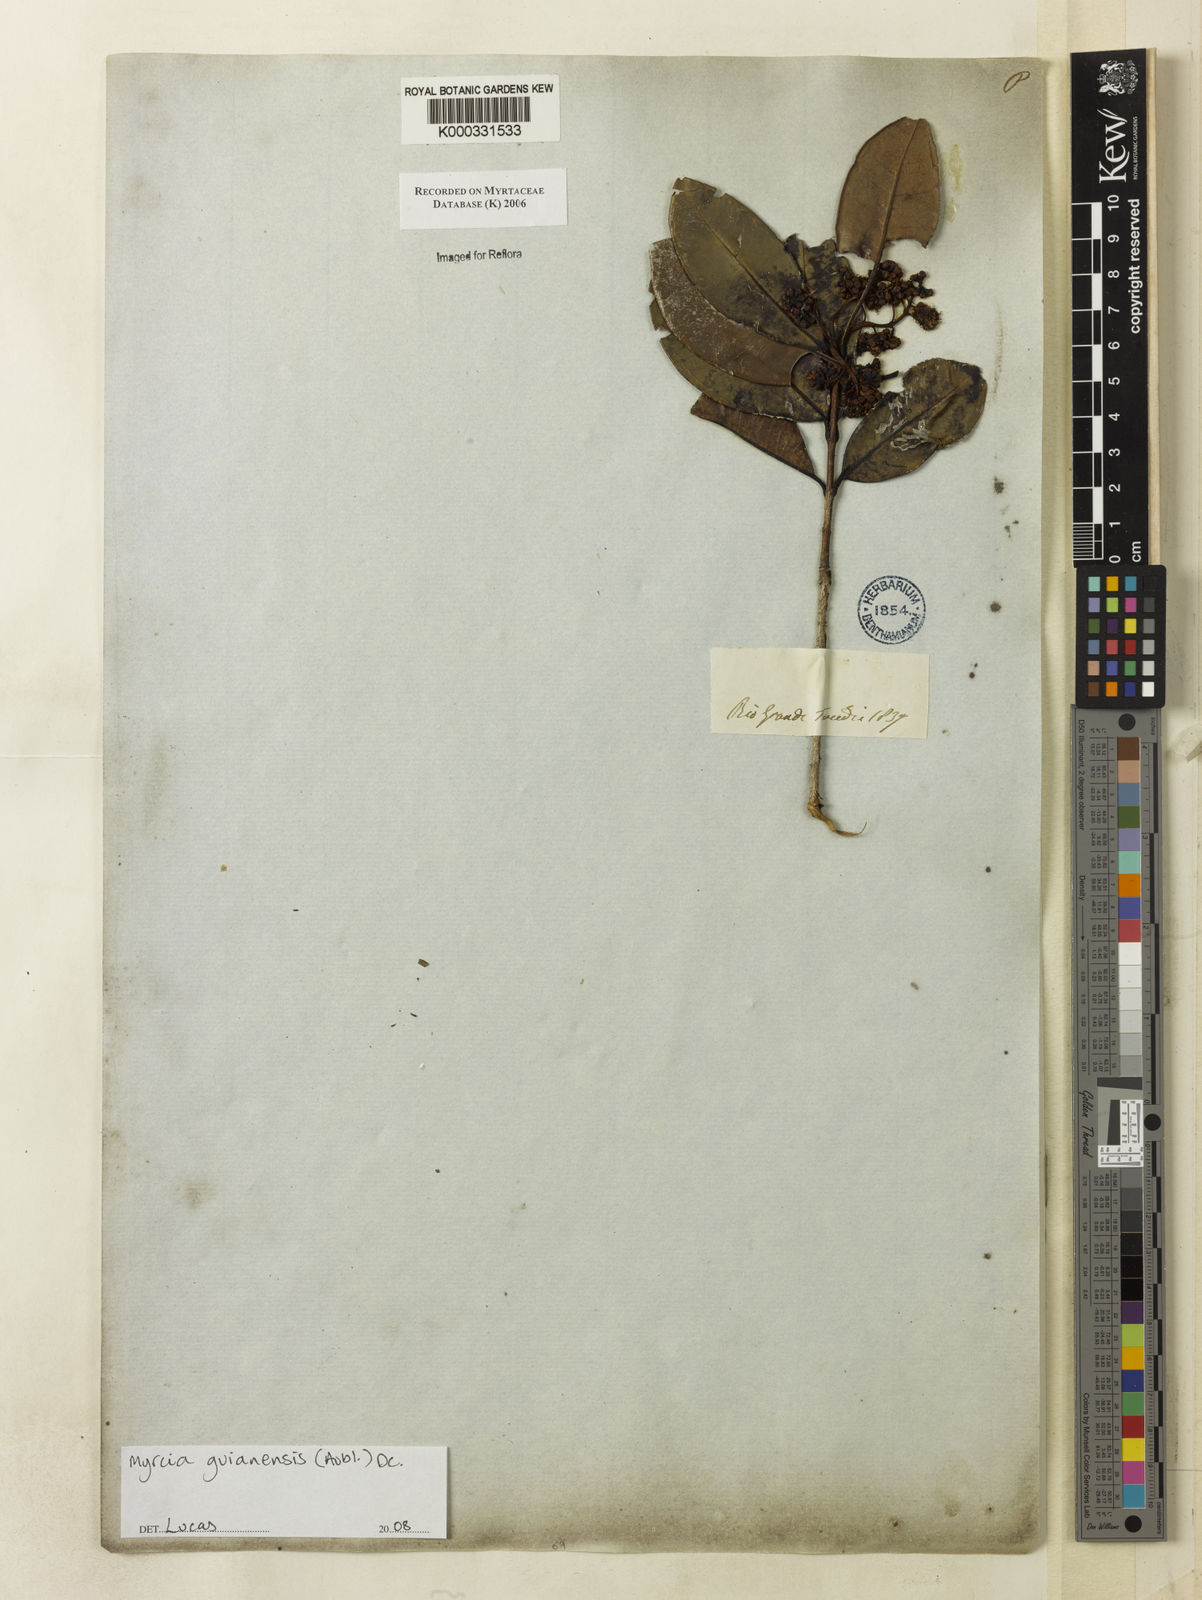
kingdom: Plantae
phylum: Tracheophyta
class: Magnoliopsida
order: Myrtales
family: Myrtaceae
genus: Myrcia
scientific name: Myrcia
